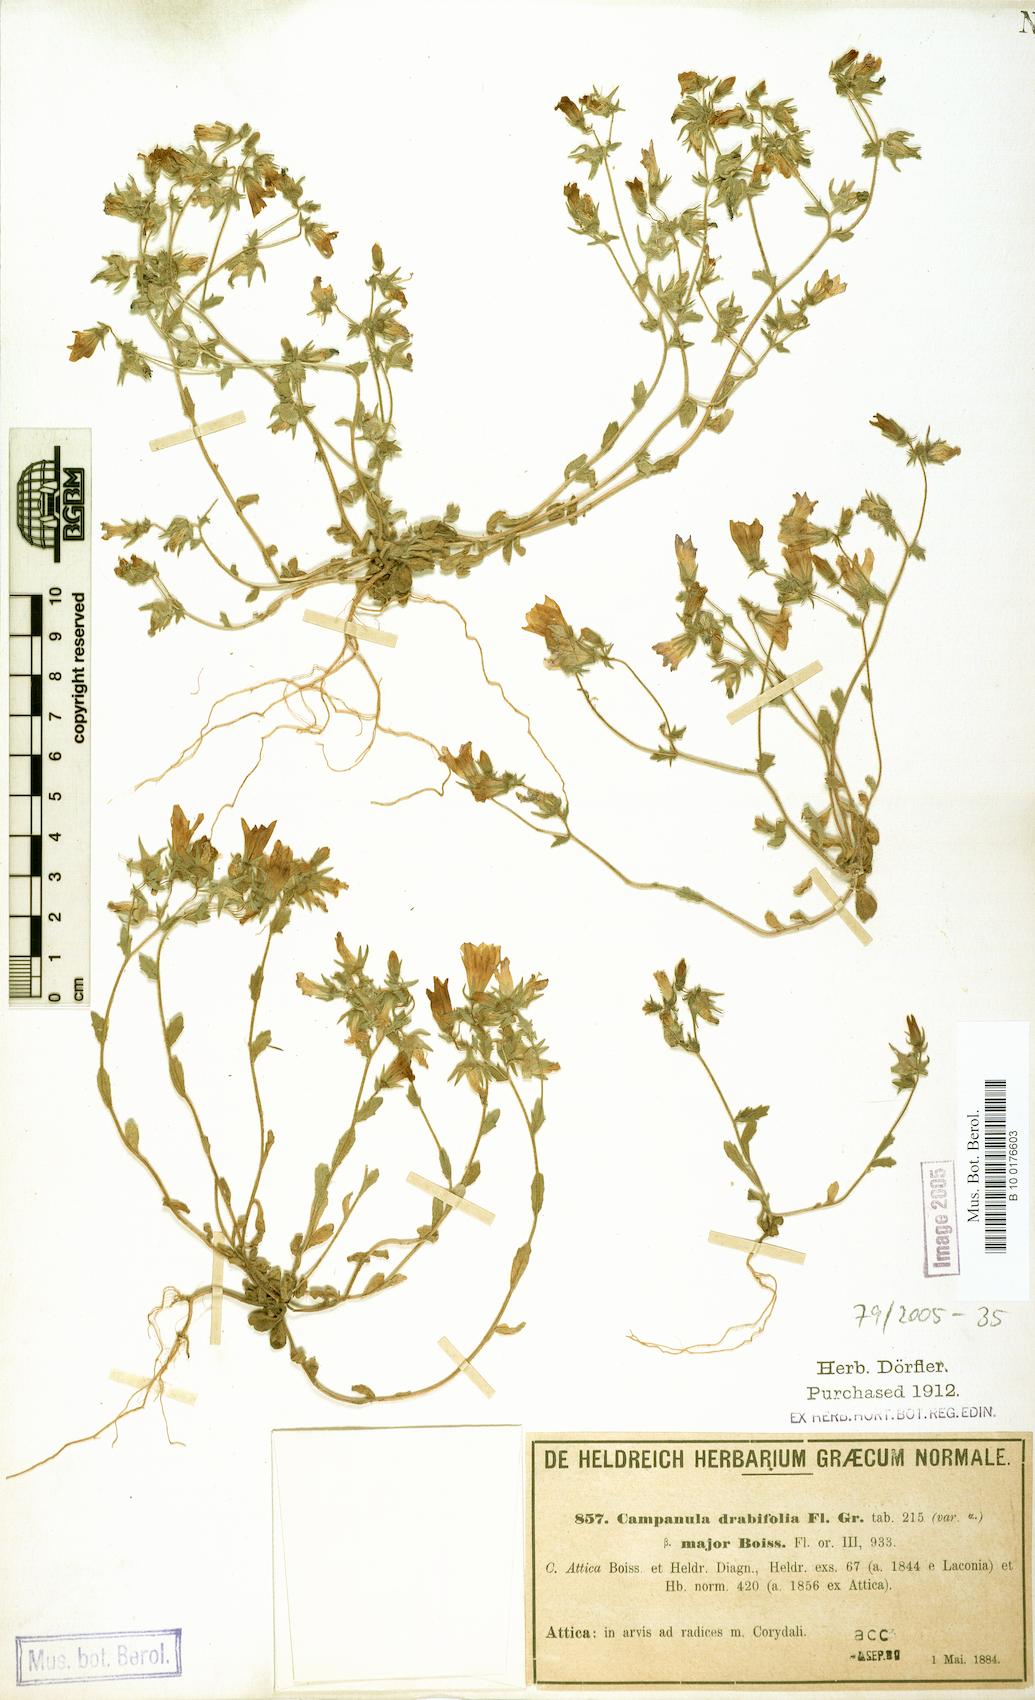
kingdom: Plantae
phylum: Tracheophyta
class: Magnoliopsida
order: Asterales
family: Campanulaceae
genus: Campanula
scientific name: Campanula drabifolia
